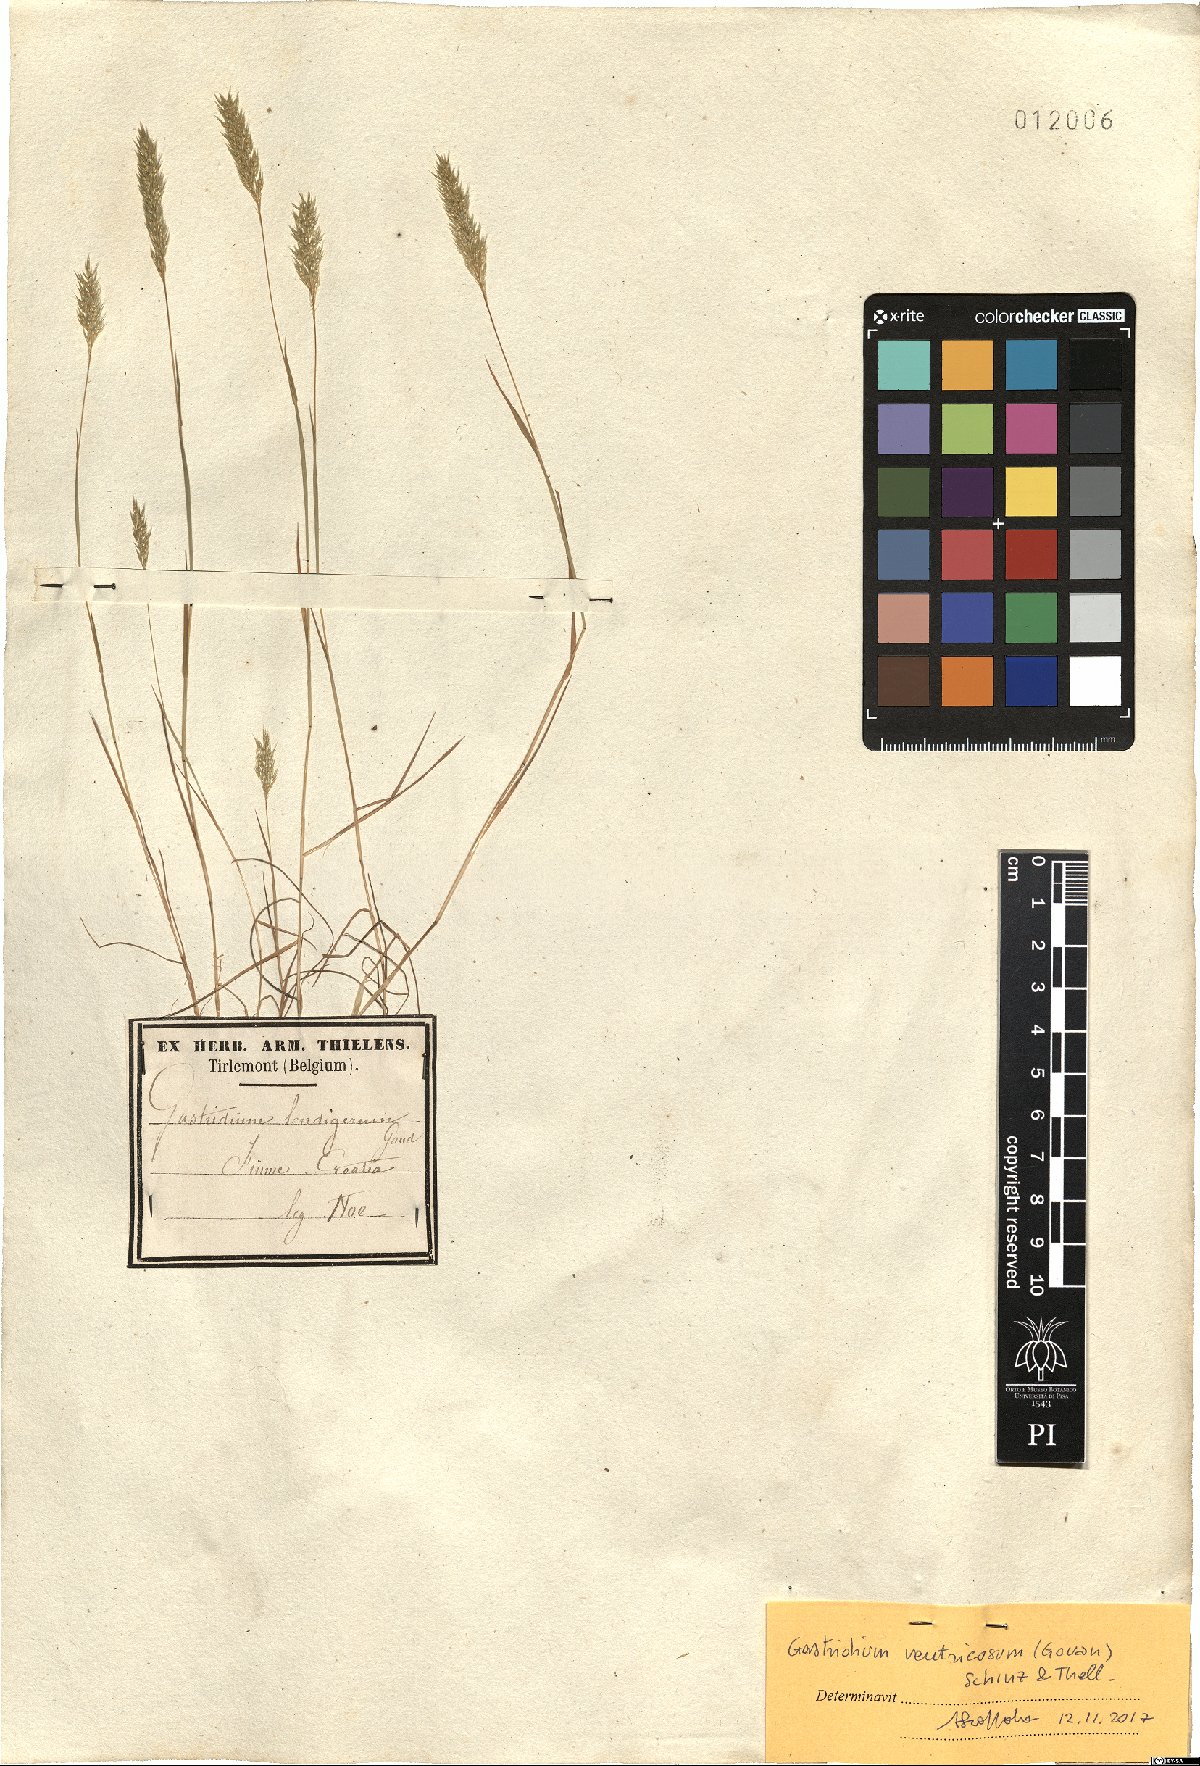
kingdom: Plantae
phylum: Tracheophyta
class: Liliopsida
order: Poales
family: Poaceae
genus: Gastridium
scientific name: Gastridium ventricosum
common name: Nit-grass
